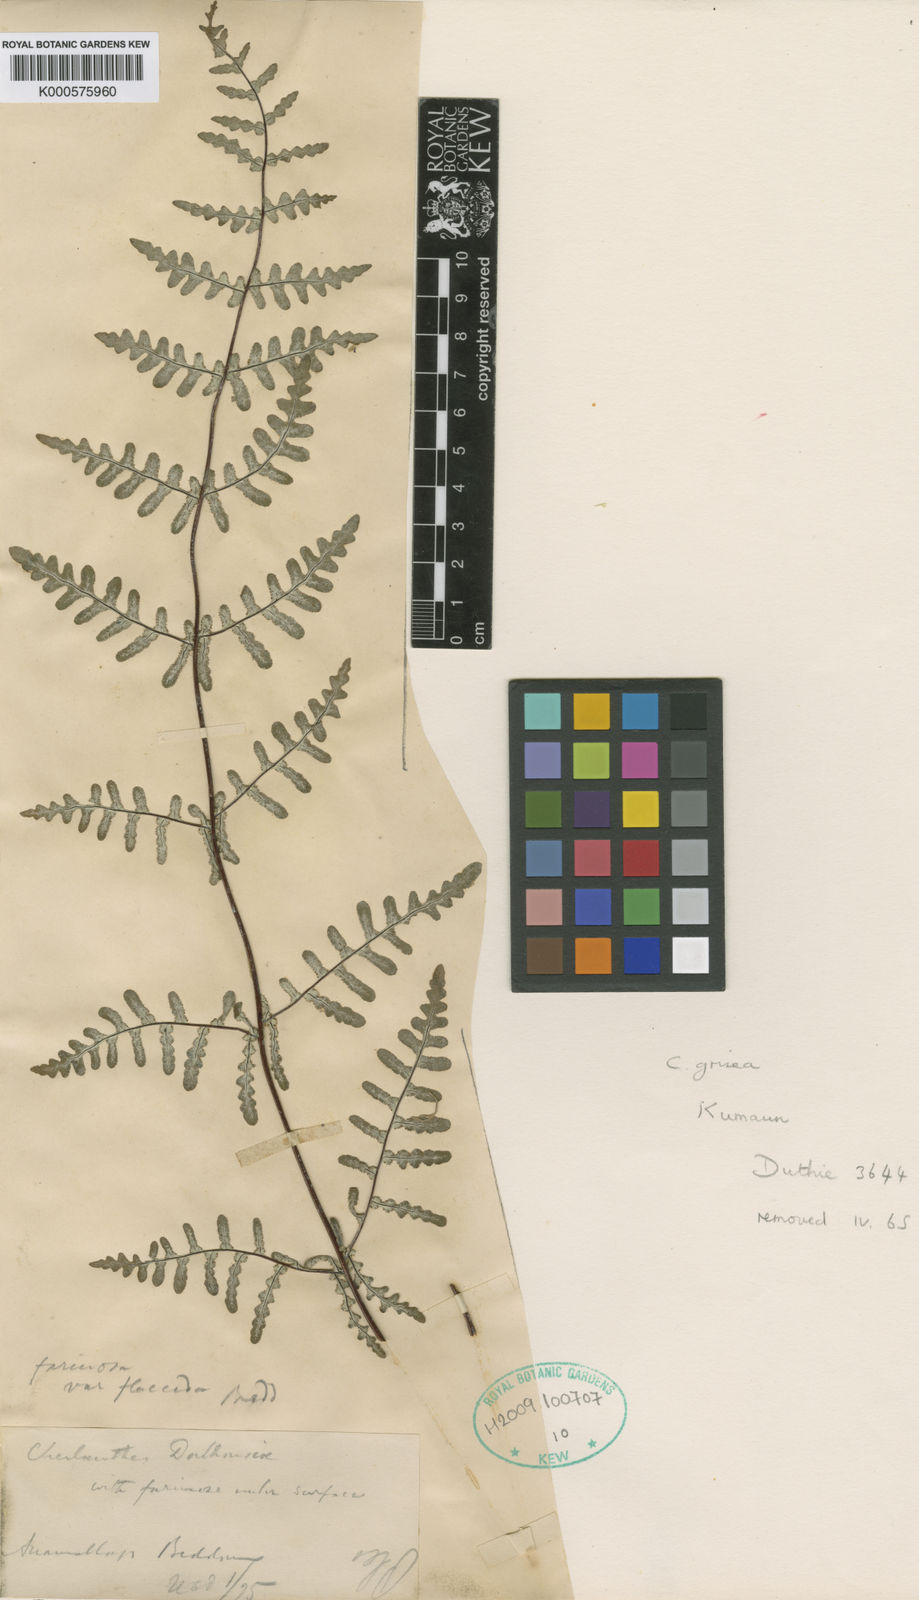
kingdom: Plantae
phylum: Tracheophyta
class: Polypodiopsida
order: Polypodiales
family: Pteridaceae
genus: Aleuritopteris
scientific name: Aleuritopteris bullosa
